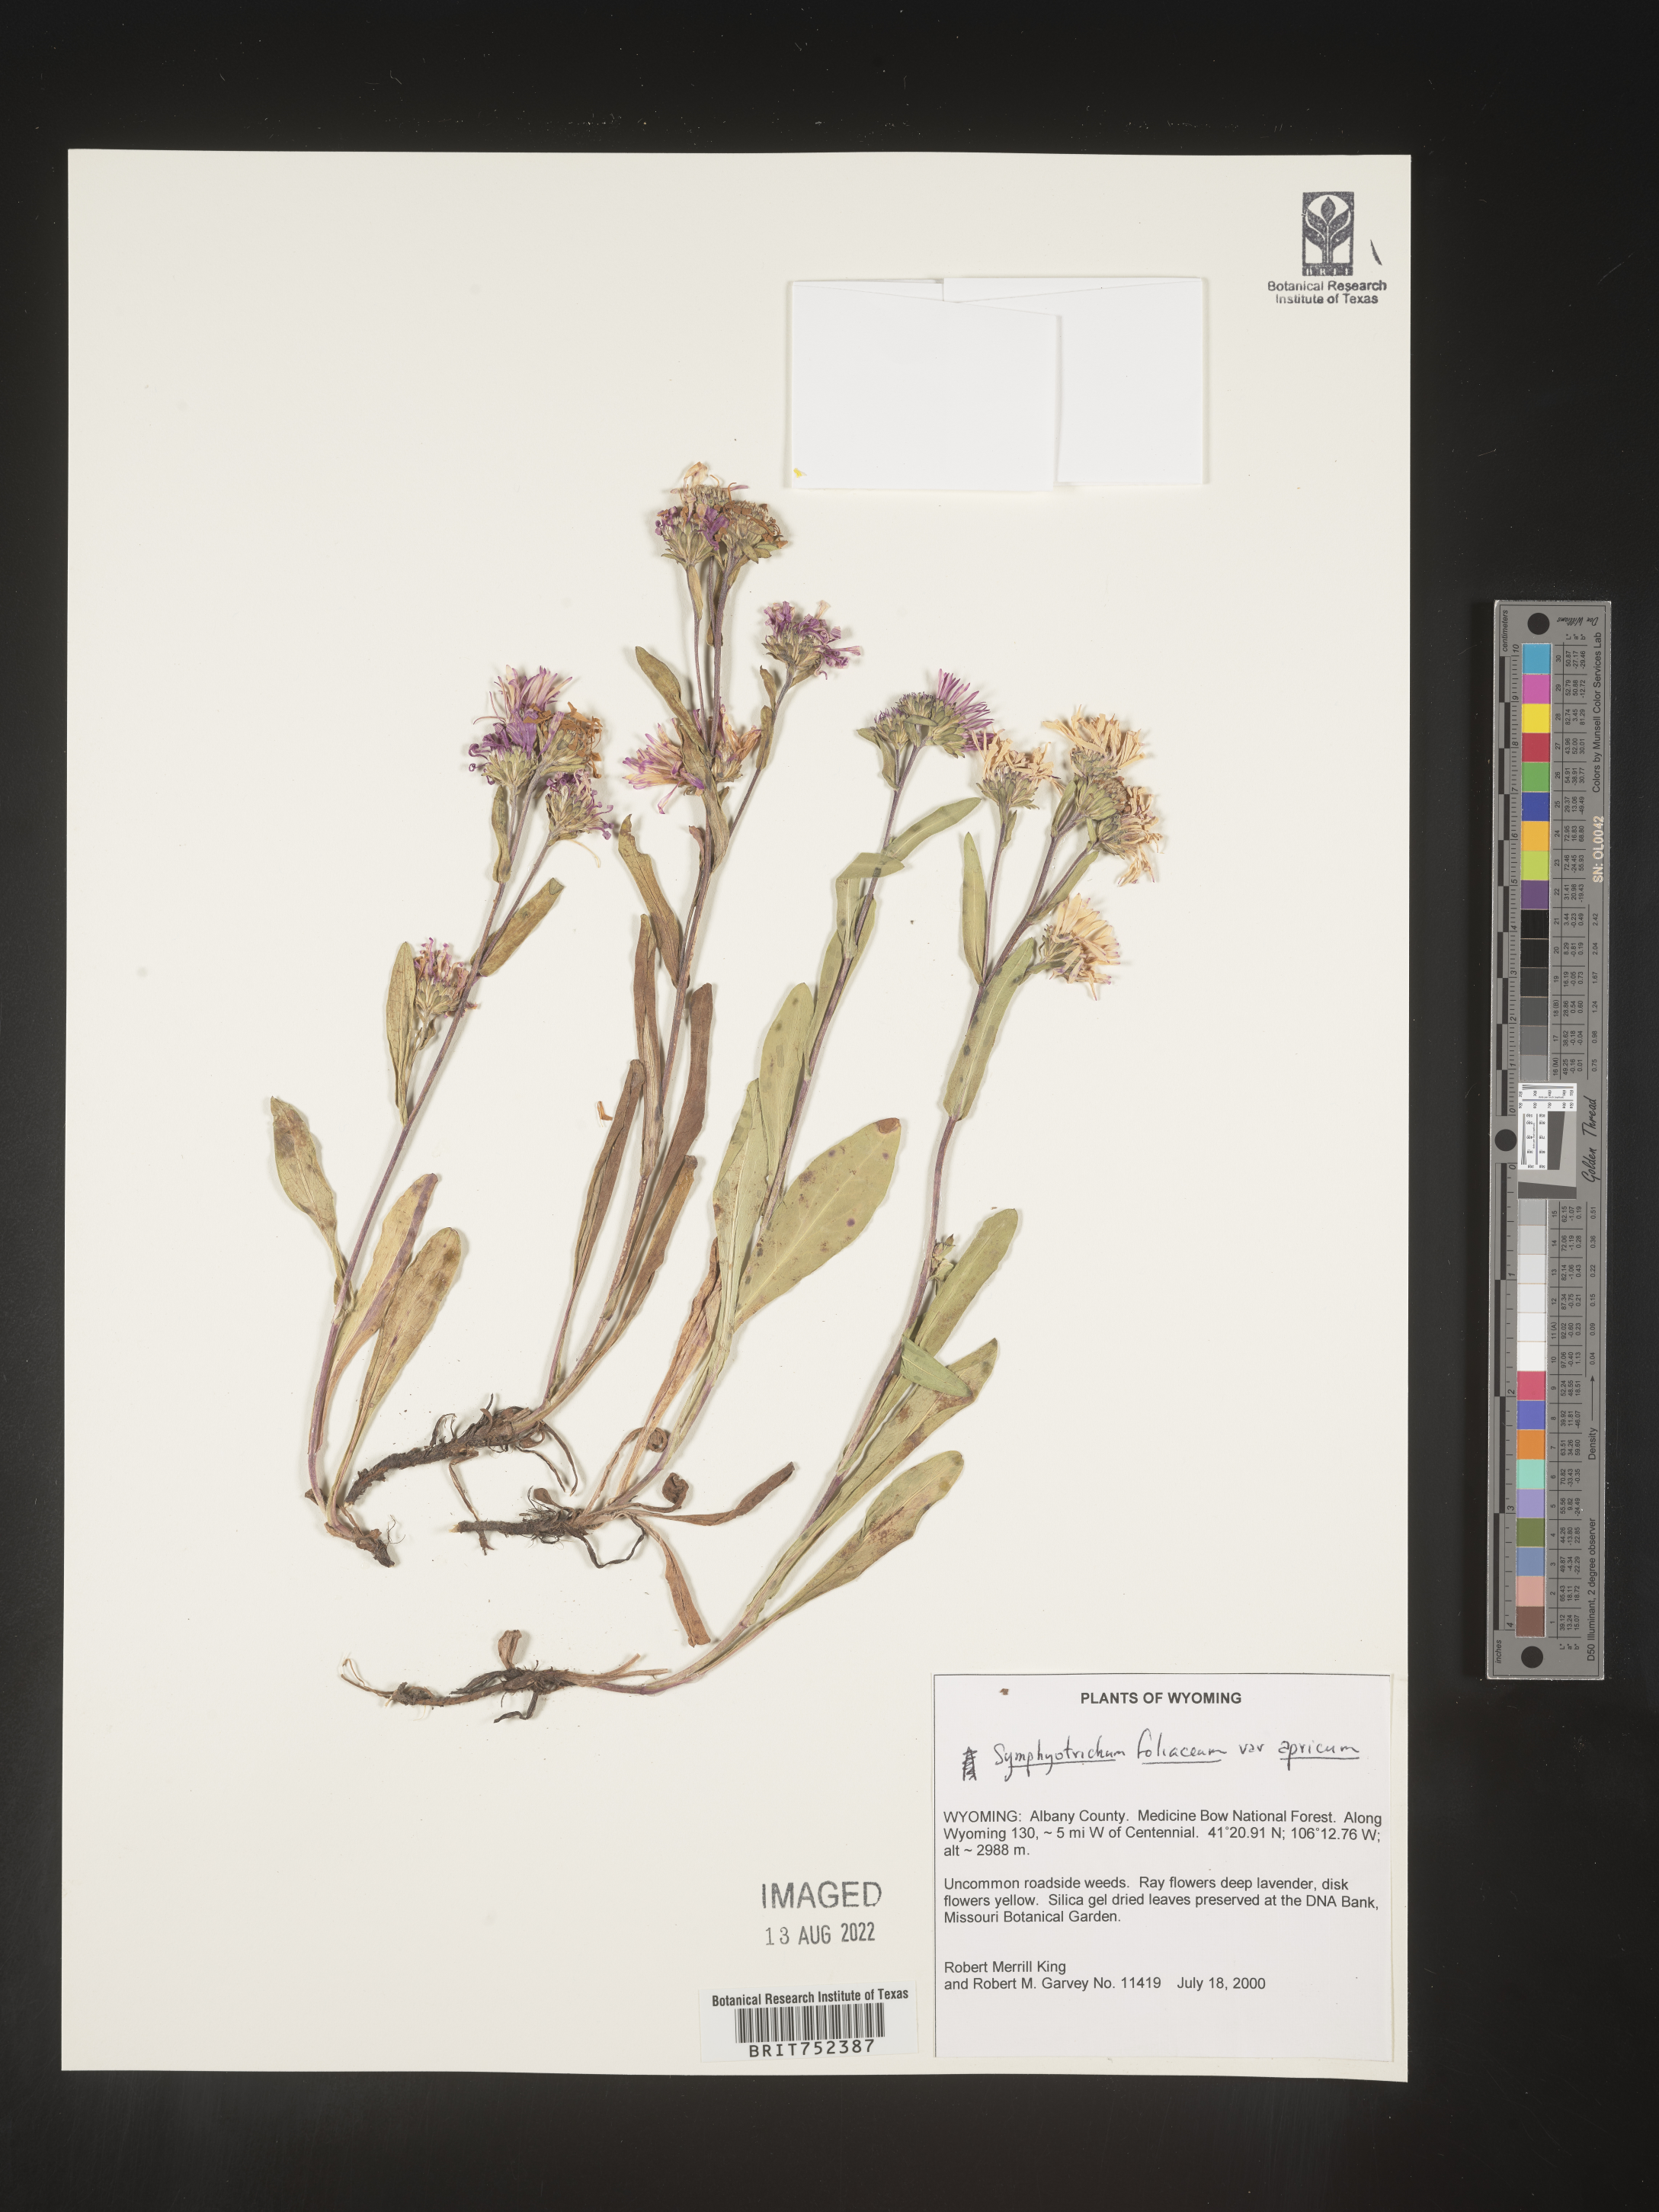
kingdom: Plantae
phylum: Tracheophyta
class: Magnoliopsida
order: Asterales
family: Asteraceae
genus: Symphyotrichum
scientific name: Symphyotrichum foliaceum
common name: Leafy aster
